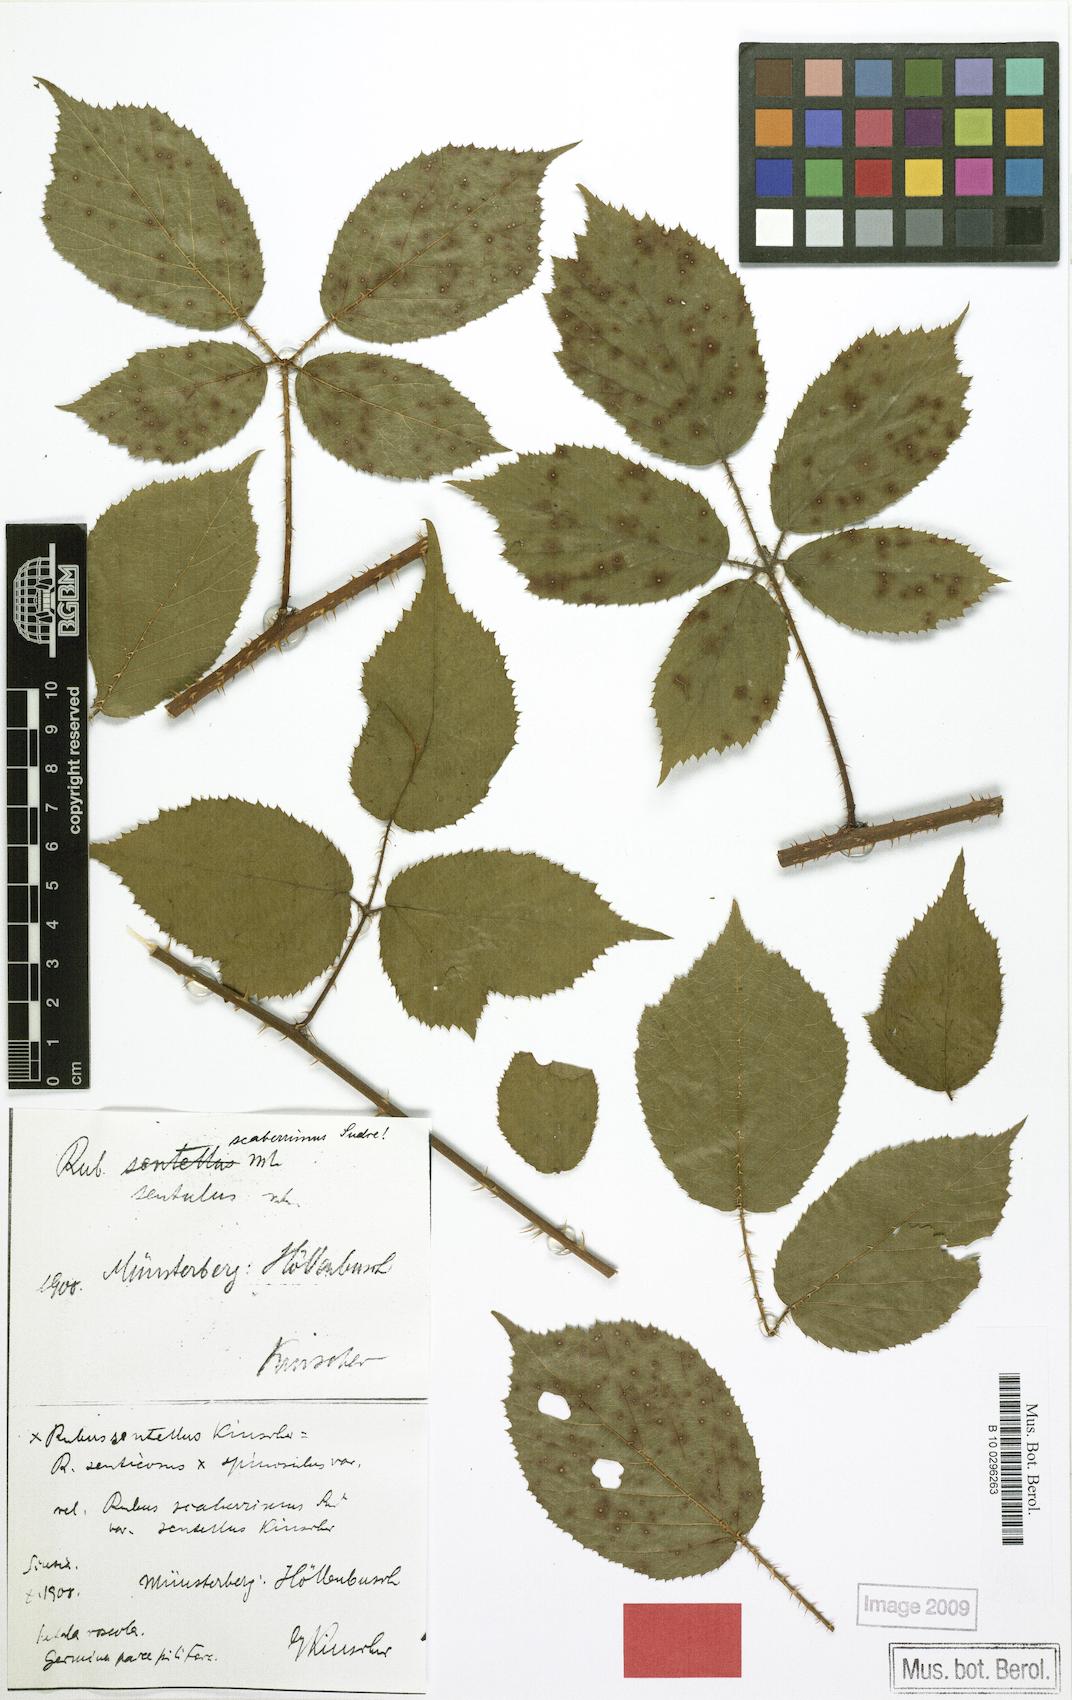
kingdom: Plantae
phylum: Tracheophyta
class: Magnoliopsida
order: Rosales
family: Rosaceae
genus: Rubus
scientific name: Rubus sentellus
